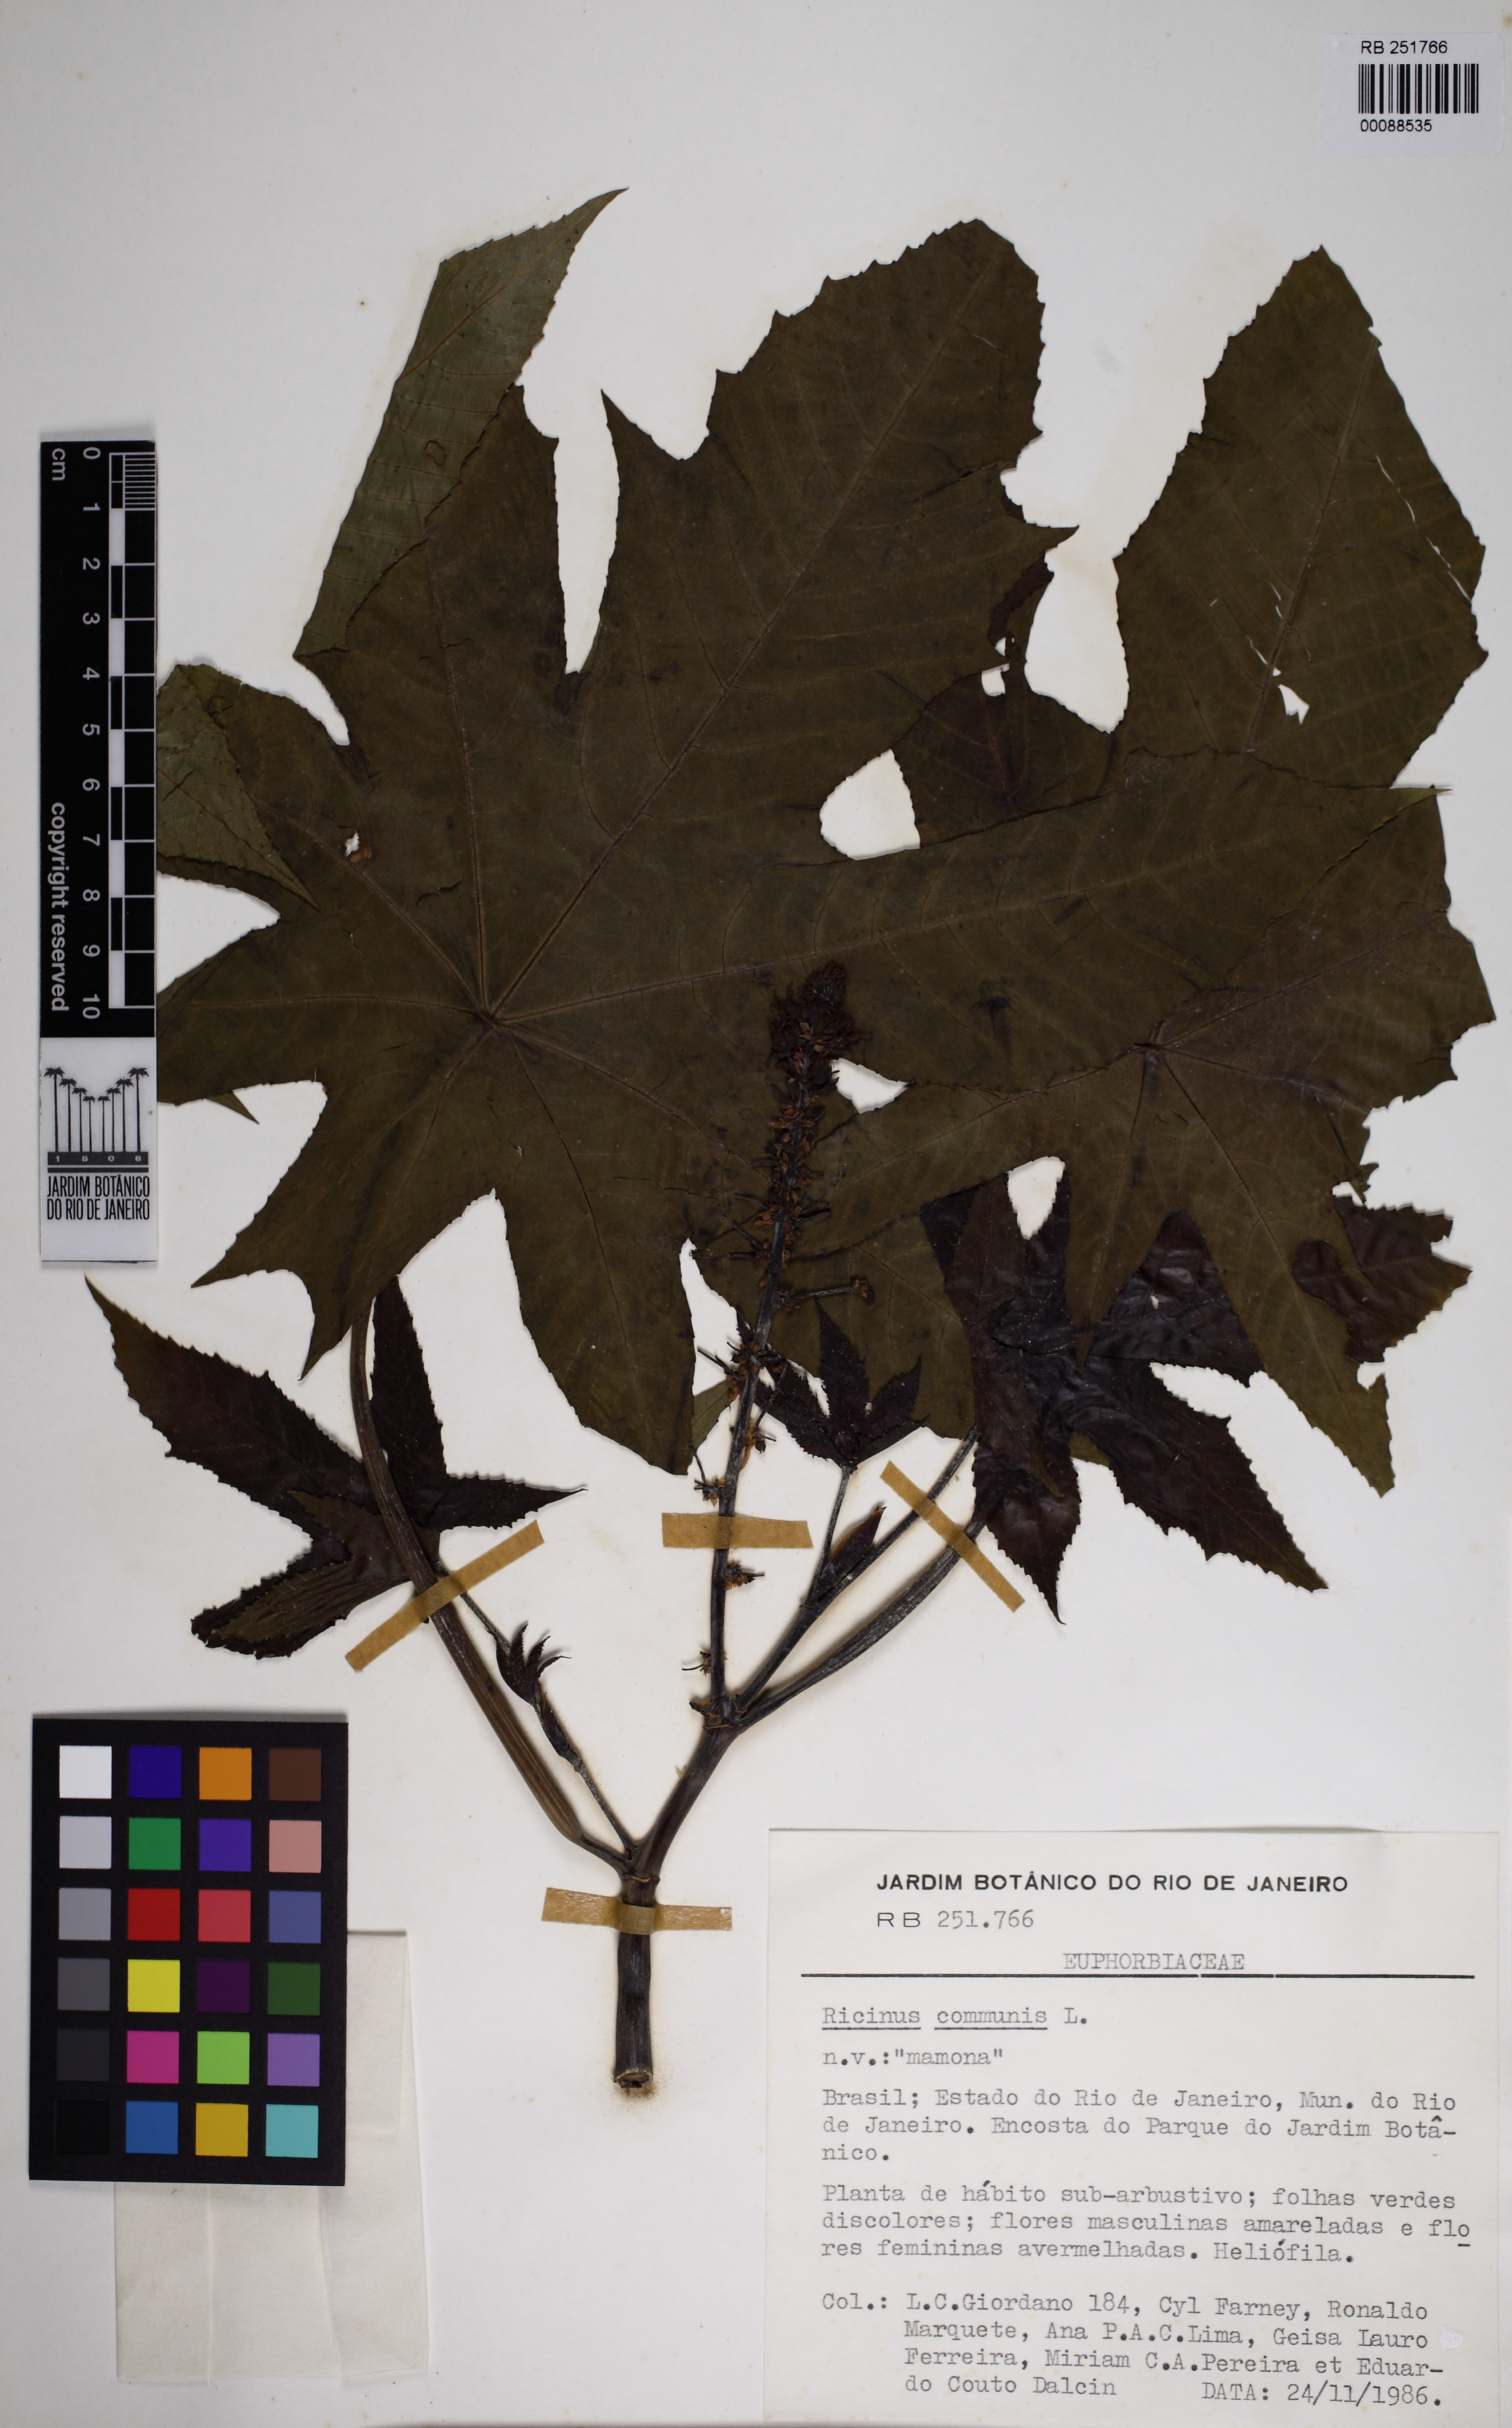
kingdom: Plantae
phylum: Tracheophyta
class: Magnoliopsida
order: Malpighiales
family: Euphorbiaceae
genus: Ricinus
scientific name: Ricinus communis
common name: Castor-oil-plant
